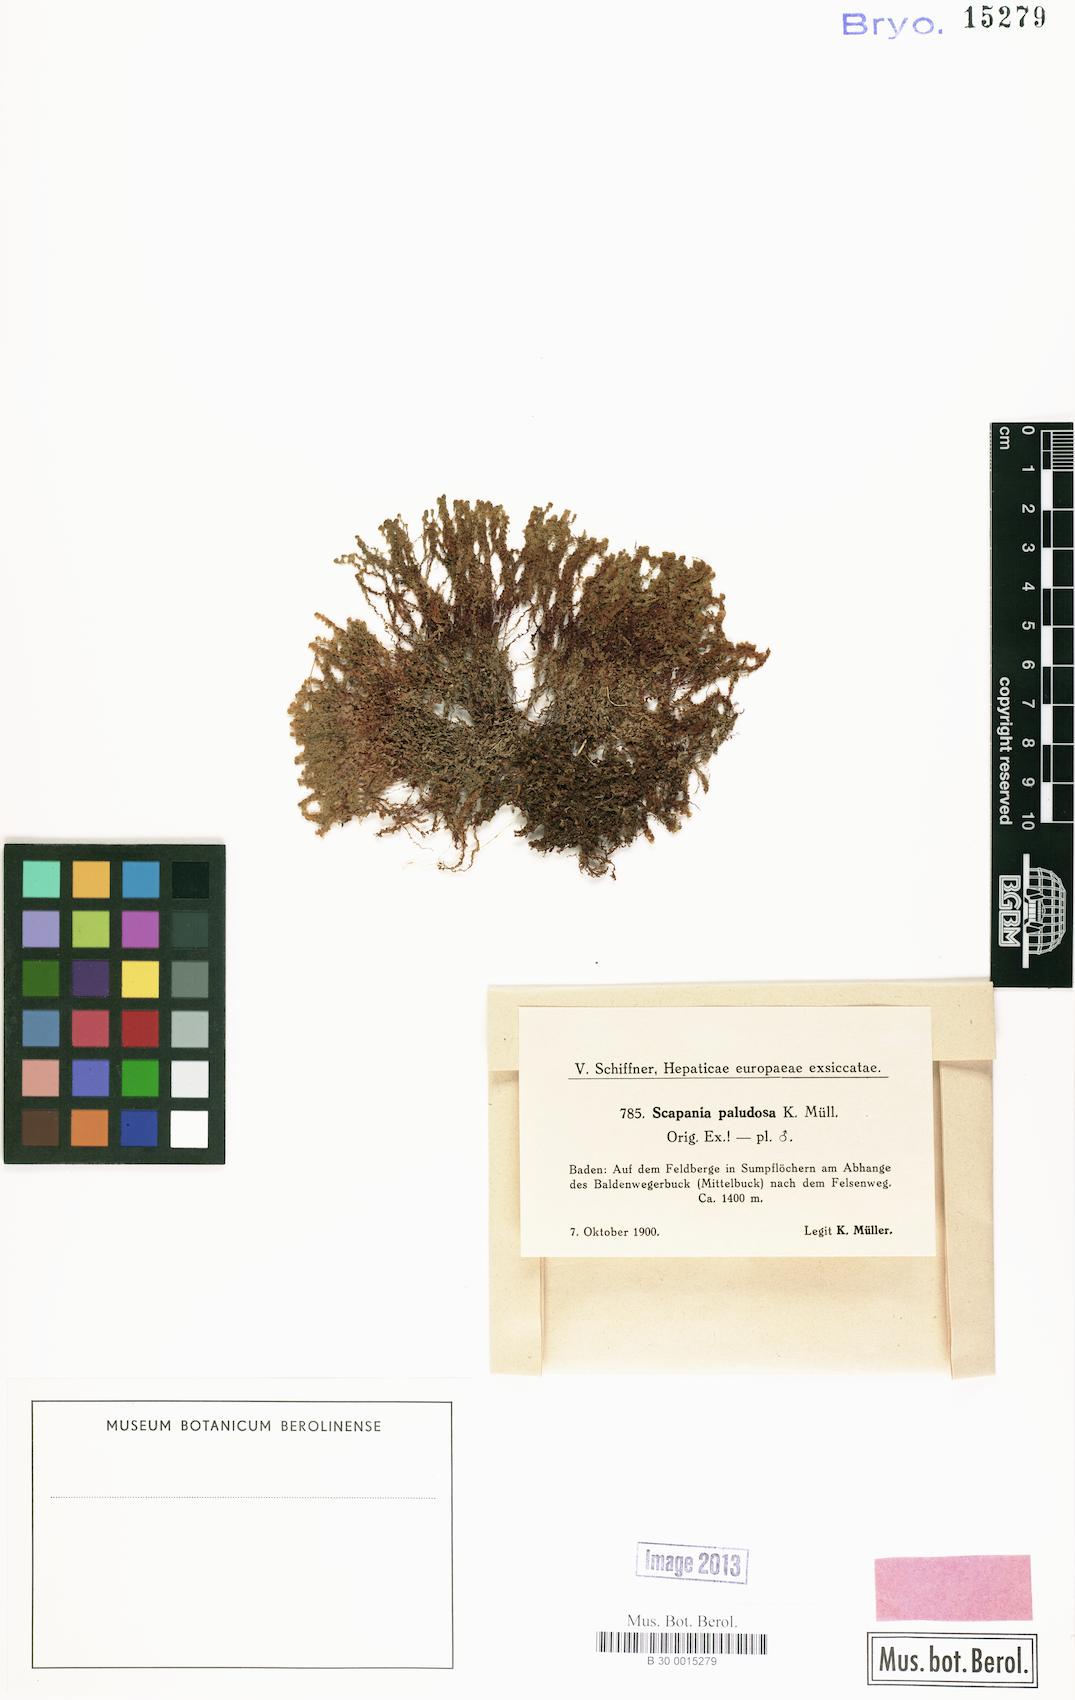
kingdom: Plantae
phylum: Marchantiophyta
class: Jungermanniopsida
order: Jungermanniales
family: Scapaniaceae
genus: Scapania
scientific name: Scapania paludosa
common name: Floppy earwort
